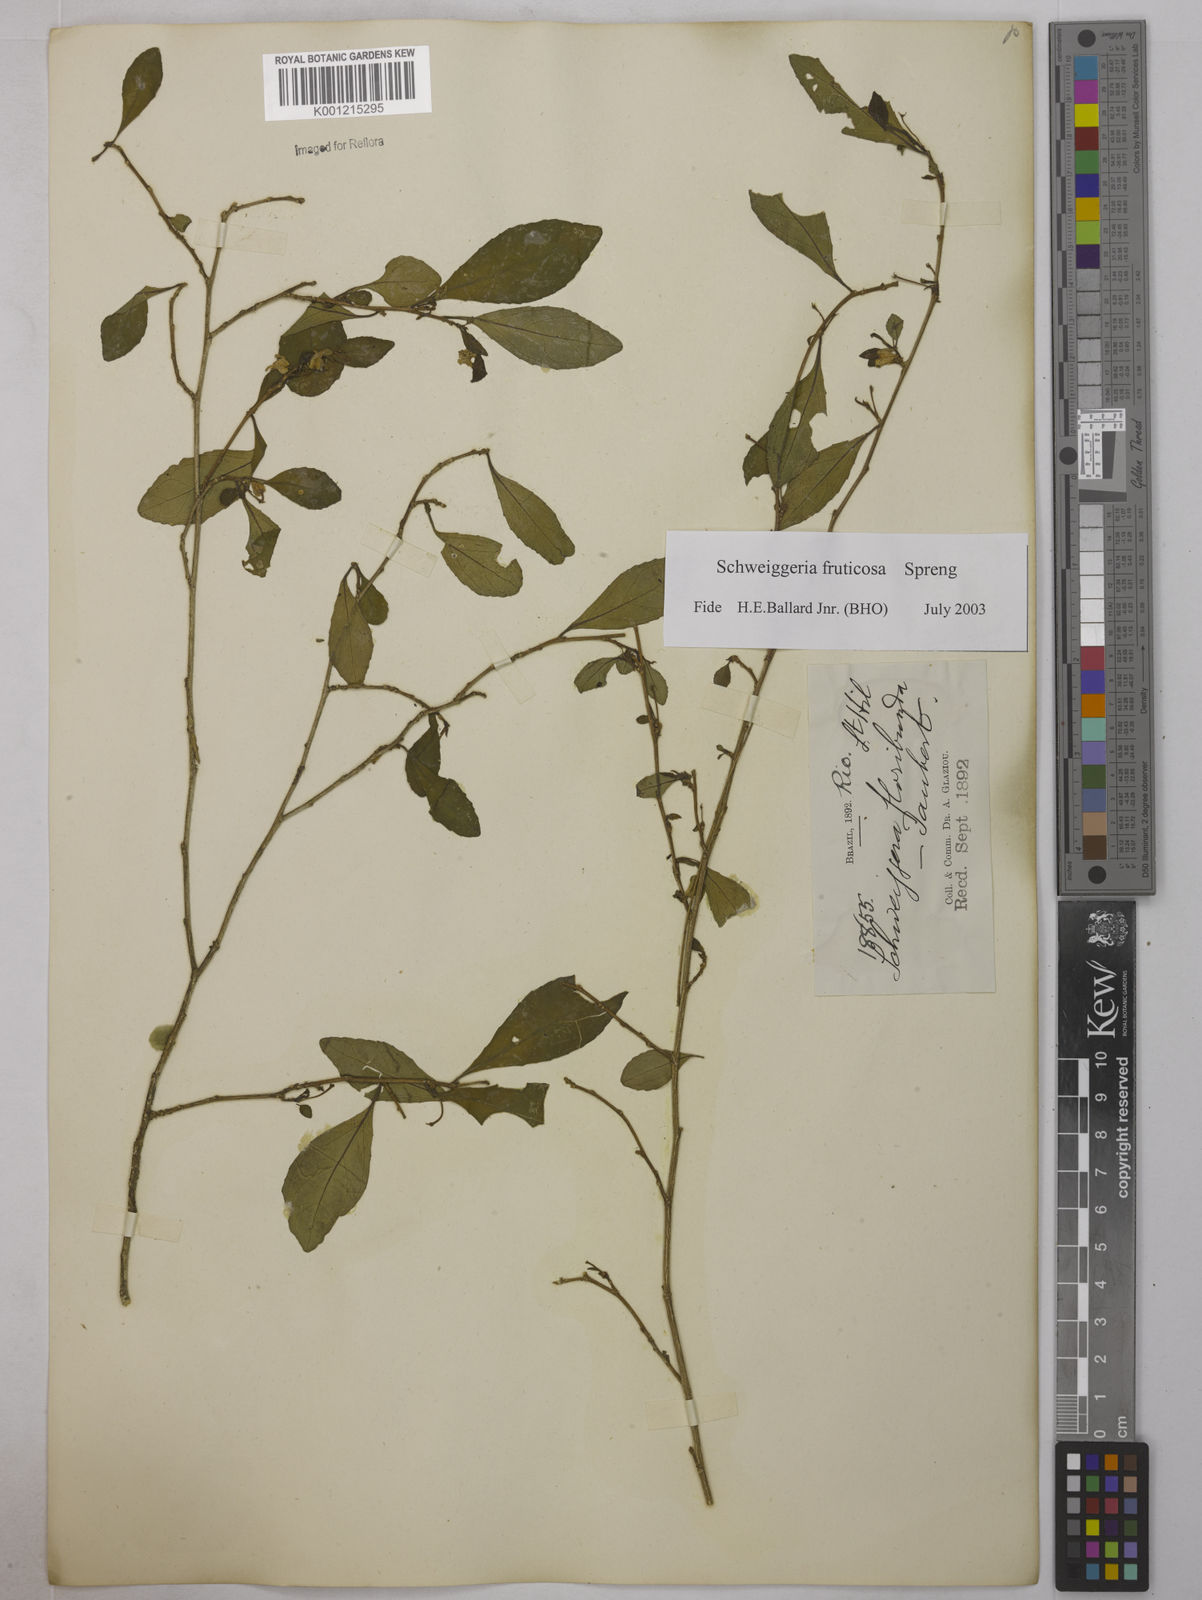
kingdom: Plantae
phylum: Tracheophyta
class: Magnoliopsida
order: Malpighiales
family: Violaceae
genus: Schweiggeria
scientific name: Schweiggeria fruticosa
